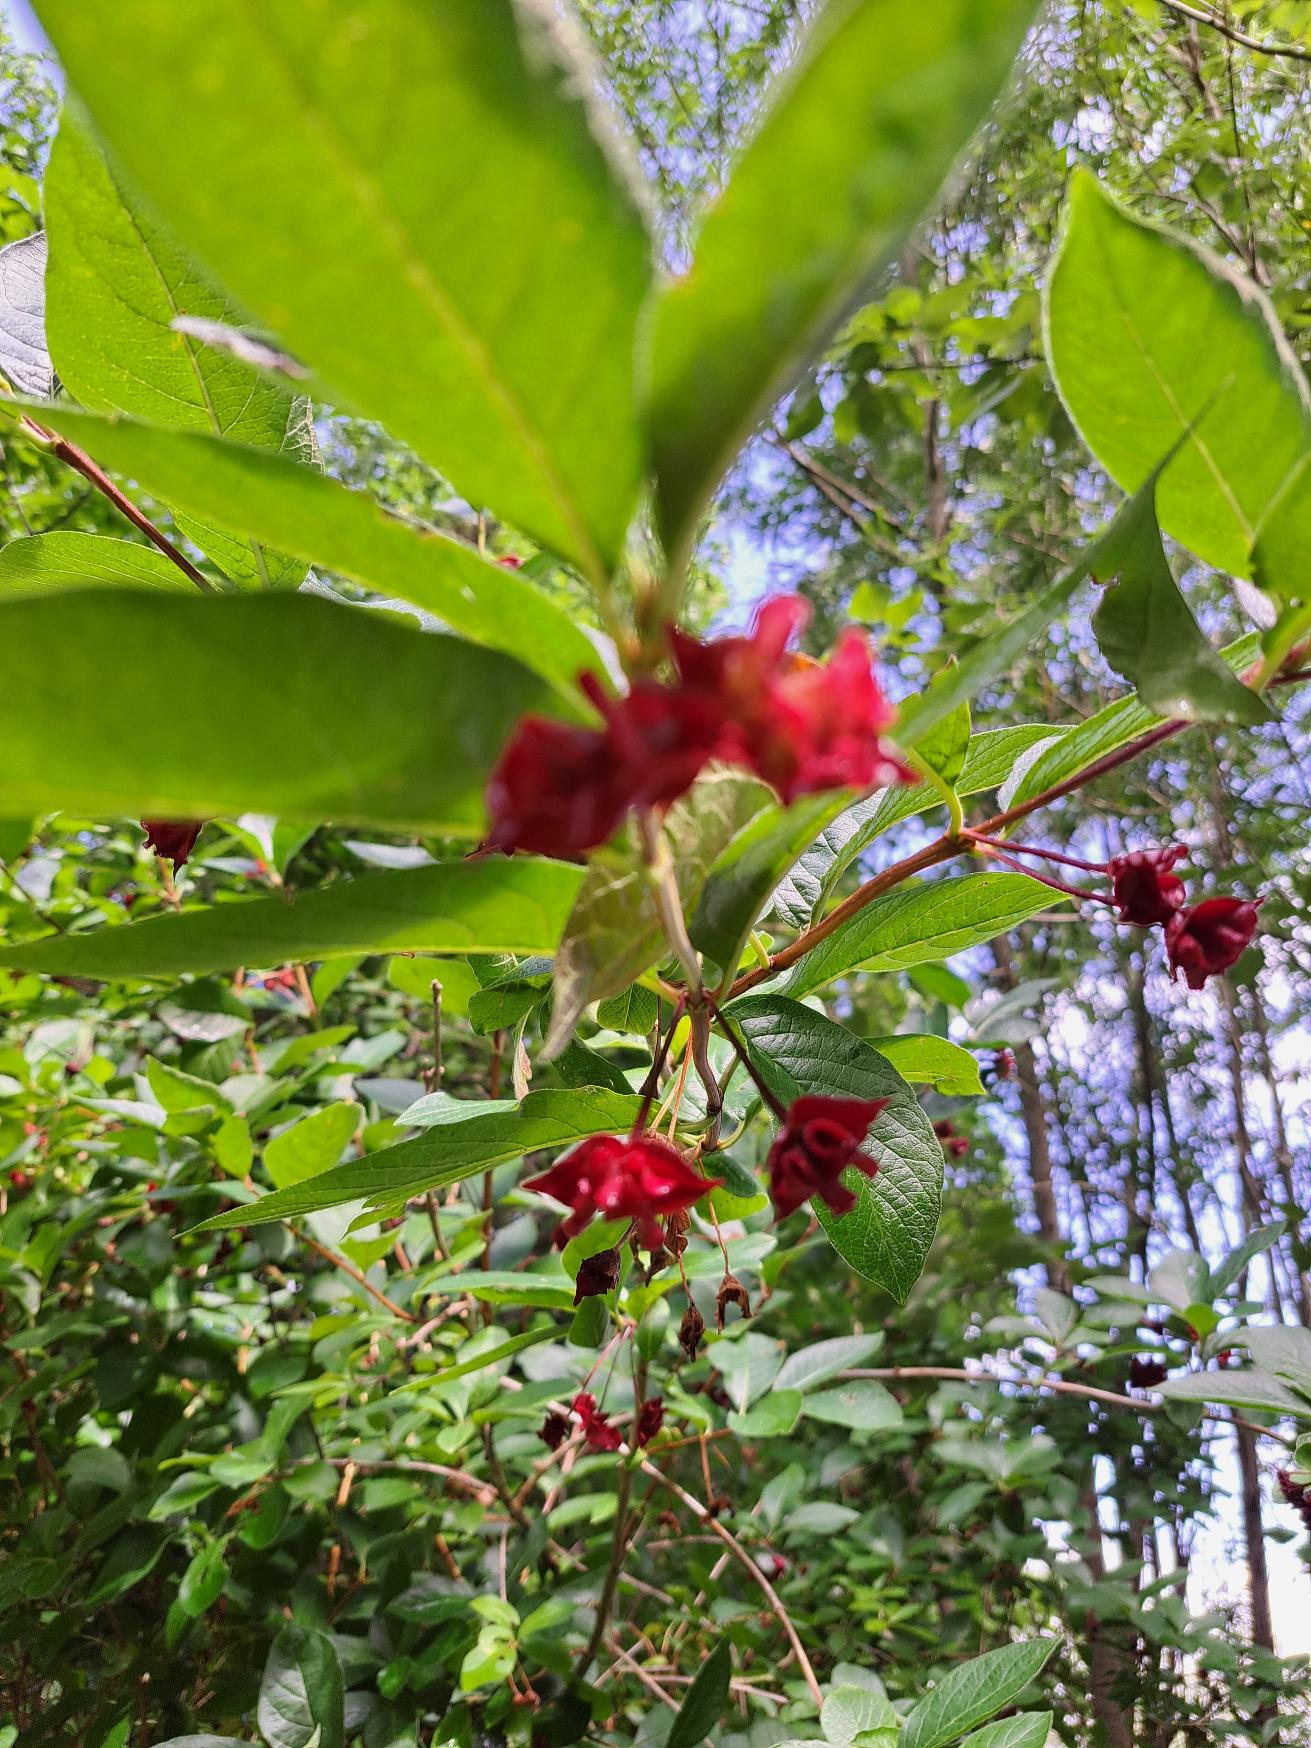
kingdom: Plantae
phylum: Tracheophyta
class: Magnoliopsida
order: Dipsacales
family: Caprifoliaceae
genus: Lonicera
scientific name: Lonicera involucrata
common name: Svøb-gedeblad
